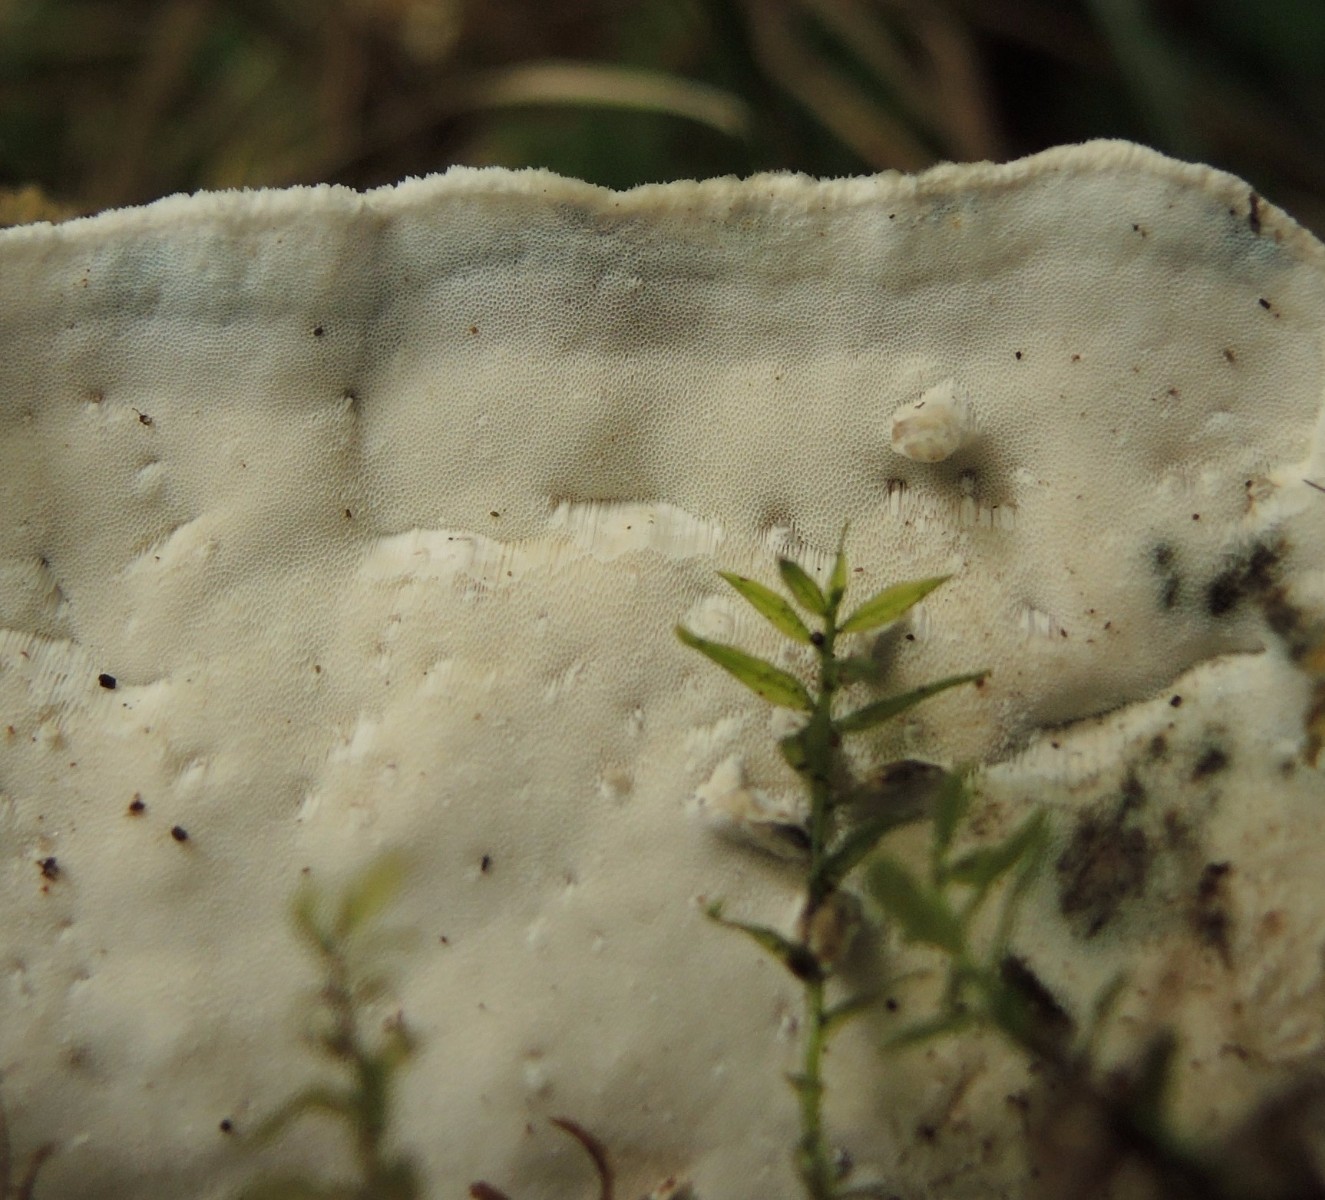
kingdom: Fungi
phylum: Basidiomycota
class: Agaricomycetes
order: Polyporales
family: Incrustoporiaceae
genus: Skeletocutis
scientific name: Skeletocutis nemoralis
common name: stor krystalporesvamp
